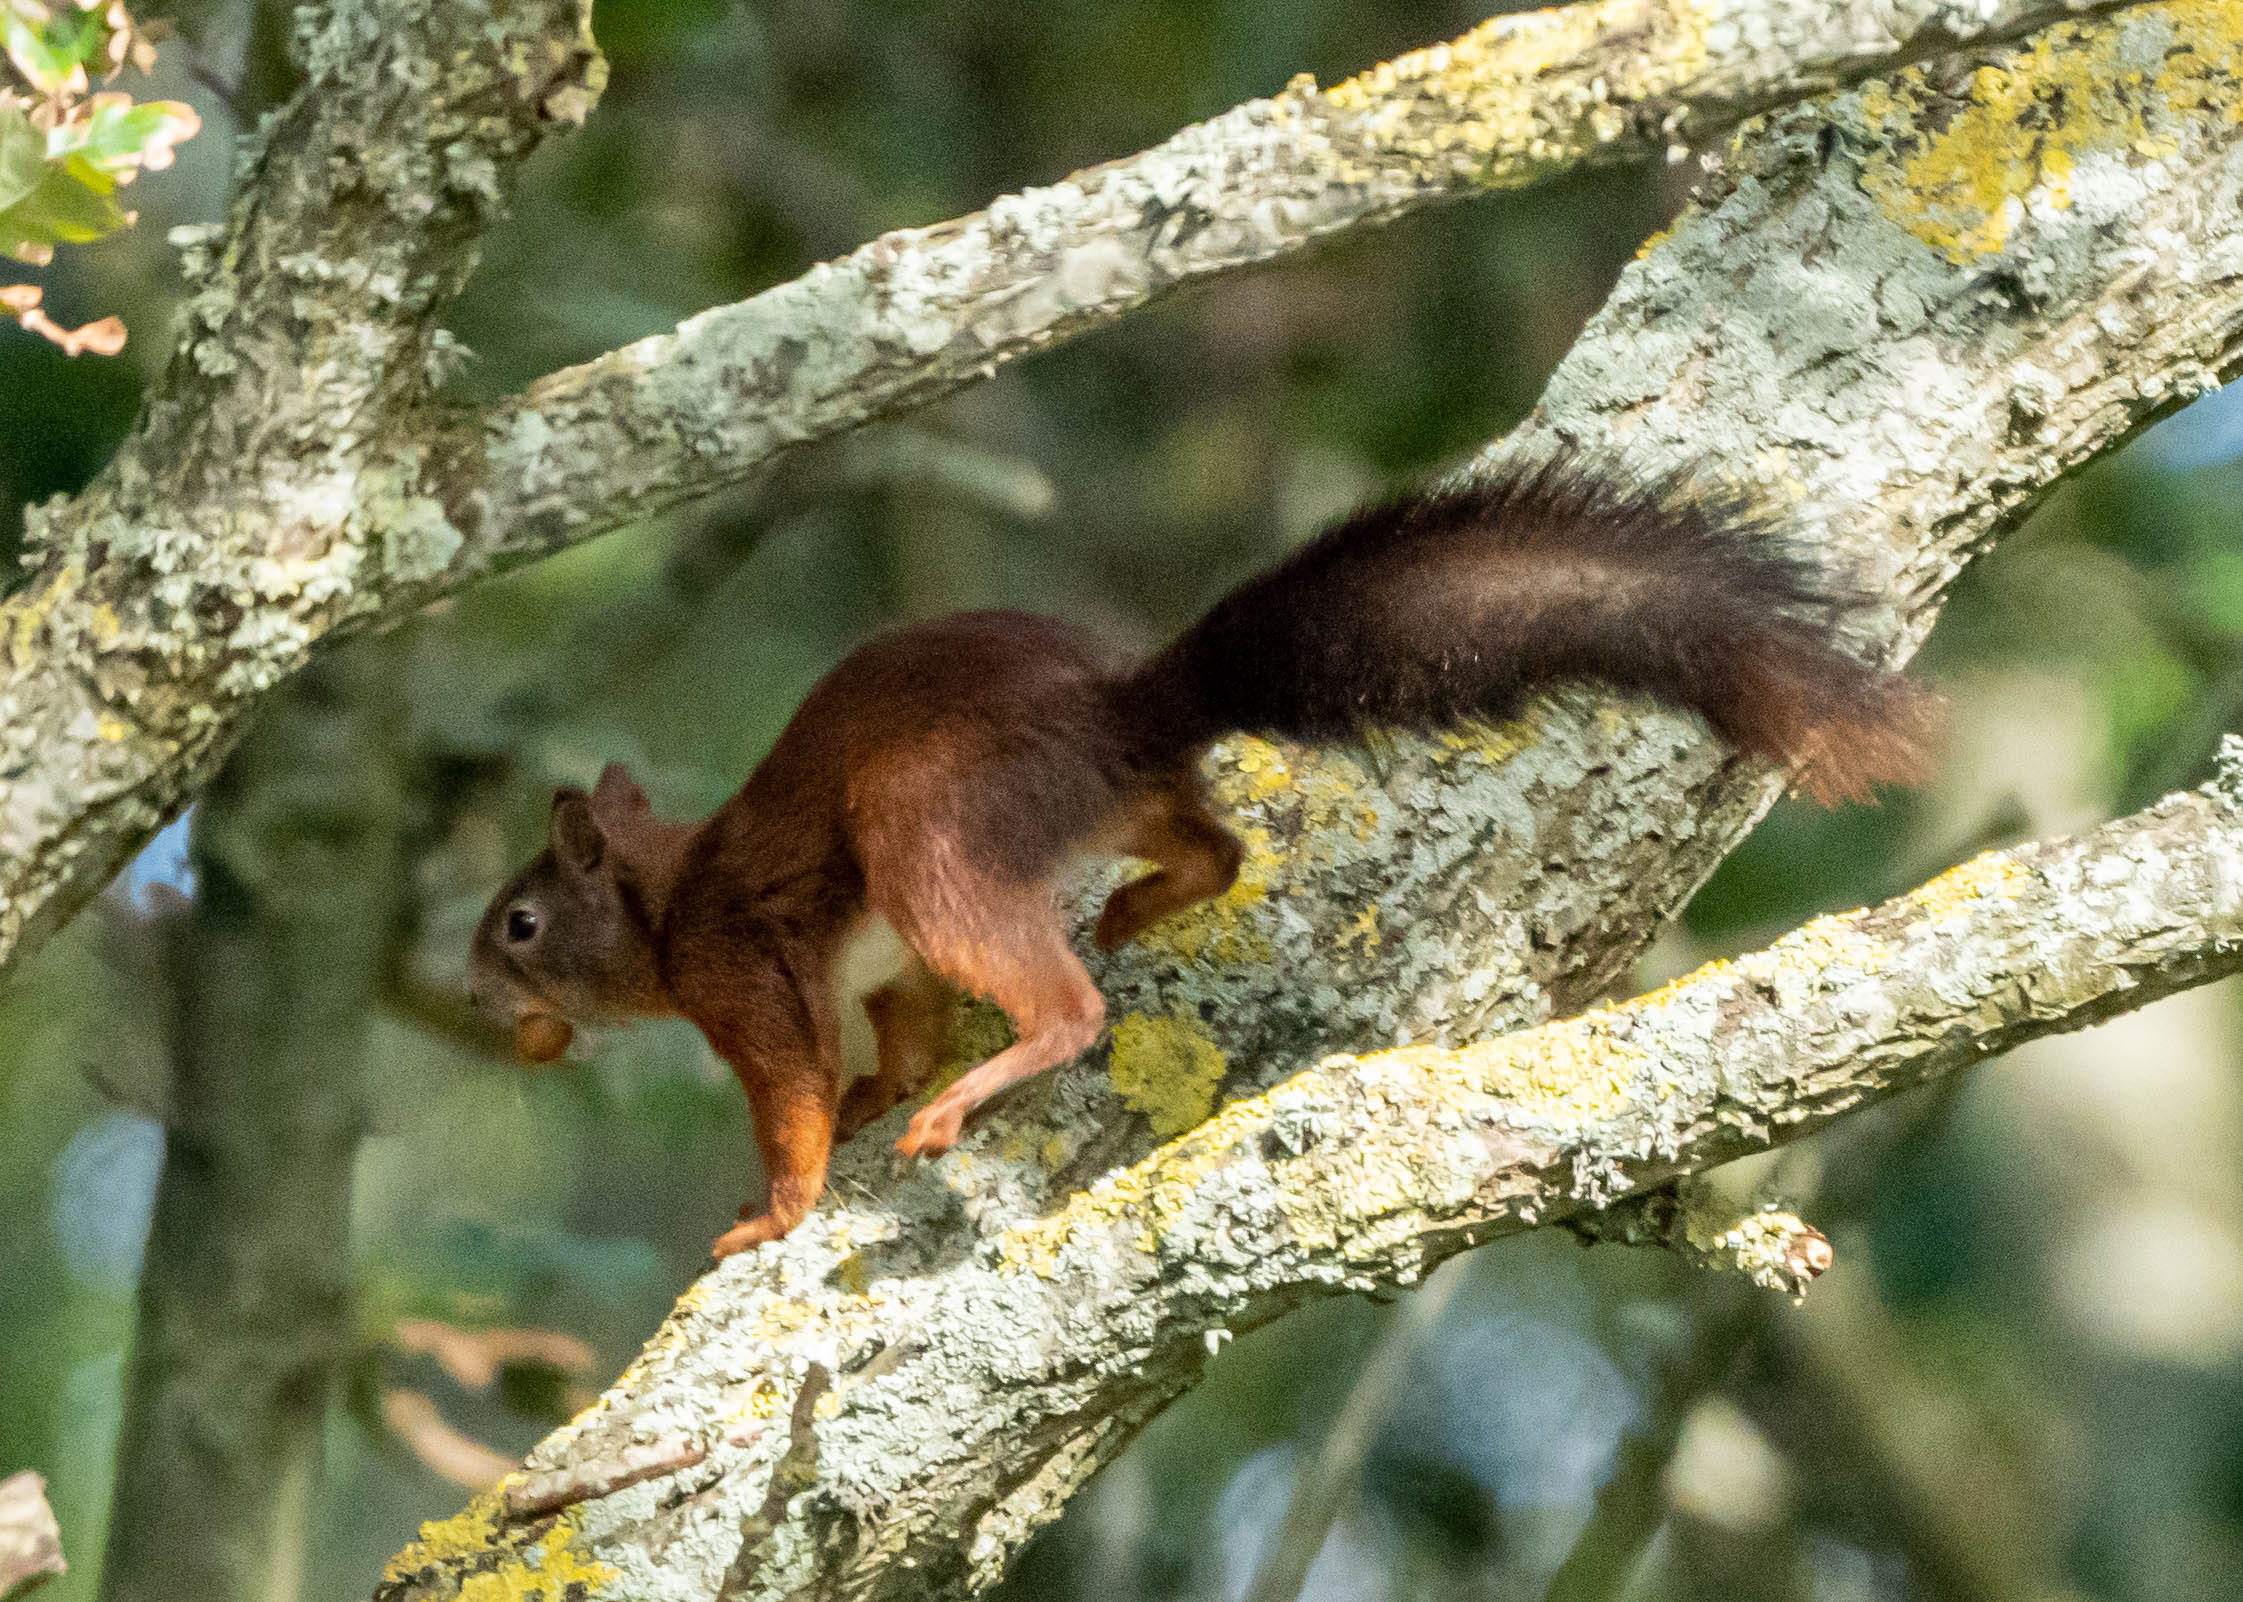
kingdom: Animalia
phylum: Chordata
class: Mammalia
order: Rodentia
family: Sciuridae
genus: Sciurus
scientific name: Sciurus vulgaris
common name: Egern
